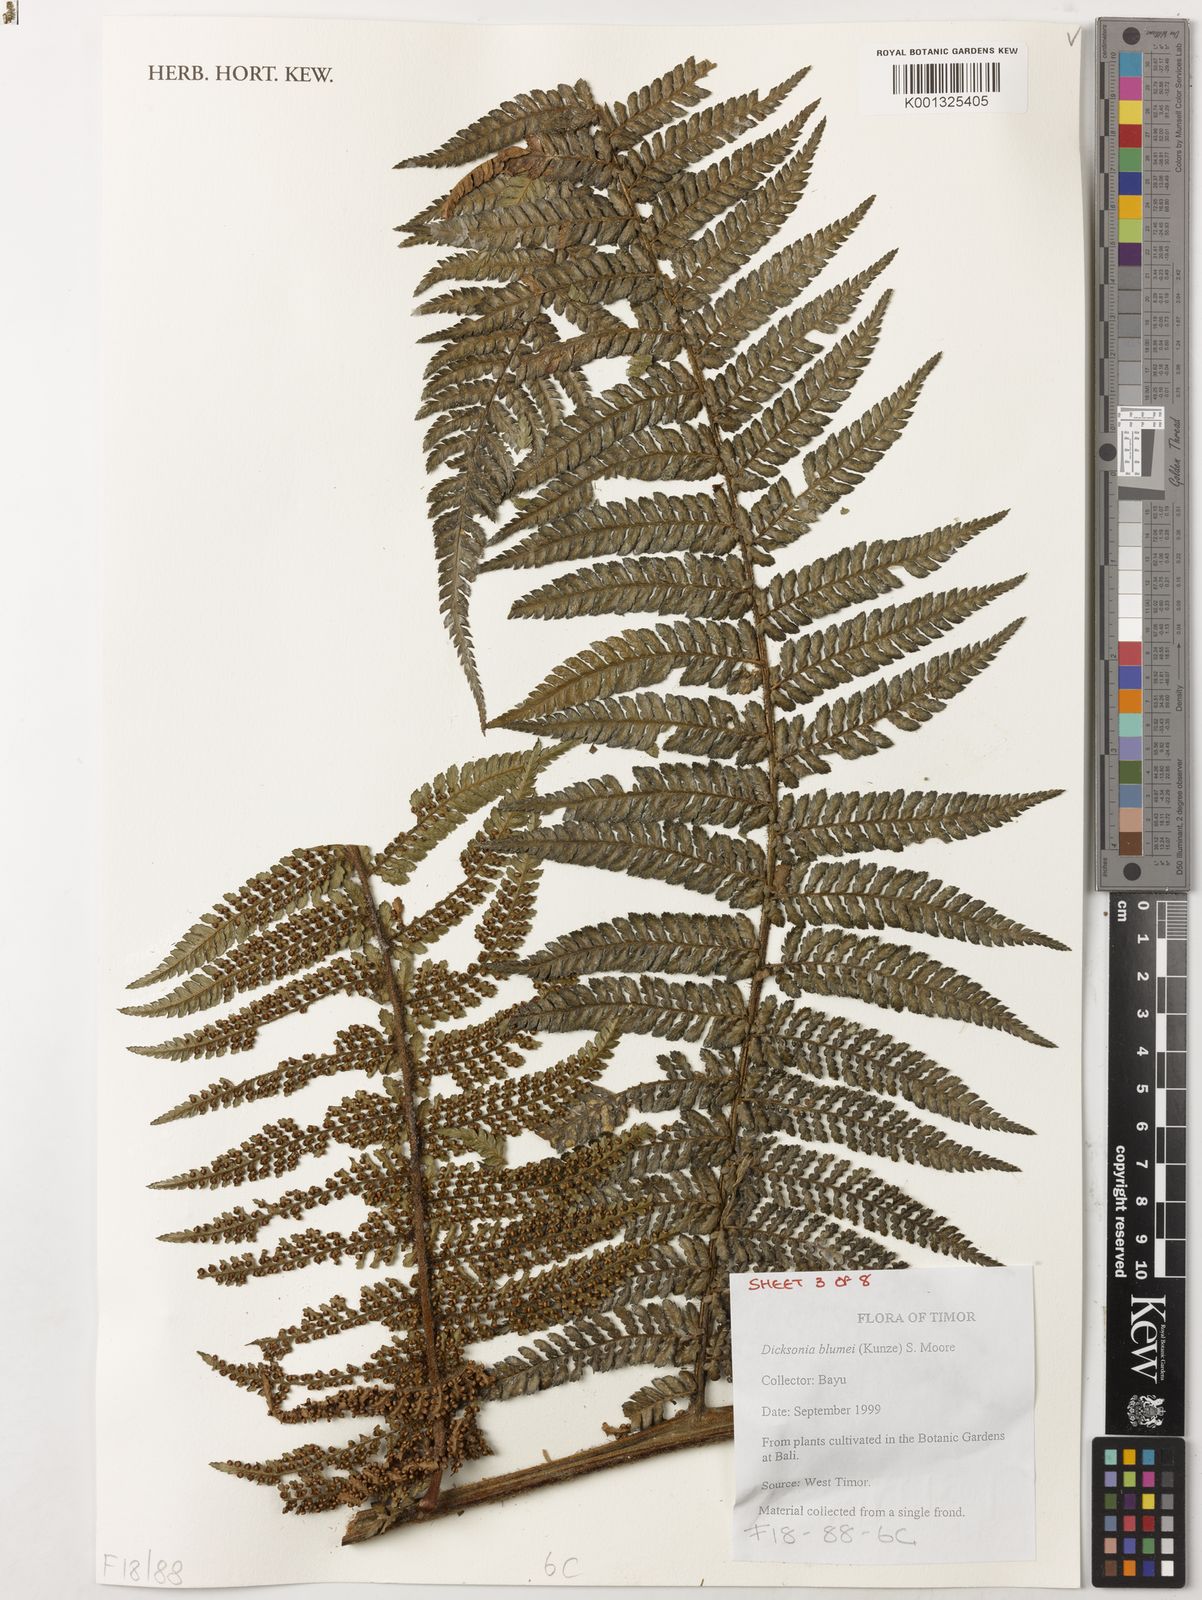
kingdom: Plantae
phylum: Tracheophyta
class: Polypodiopsida
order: Cyatheales
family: Dicksoniaceae
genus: Dicksonia
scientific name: Dicksonia
